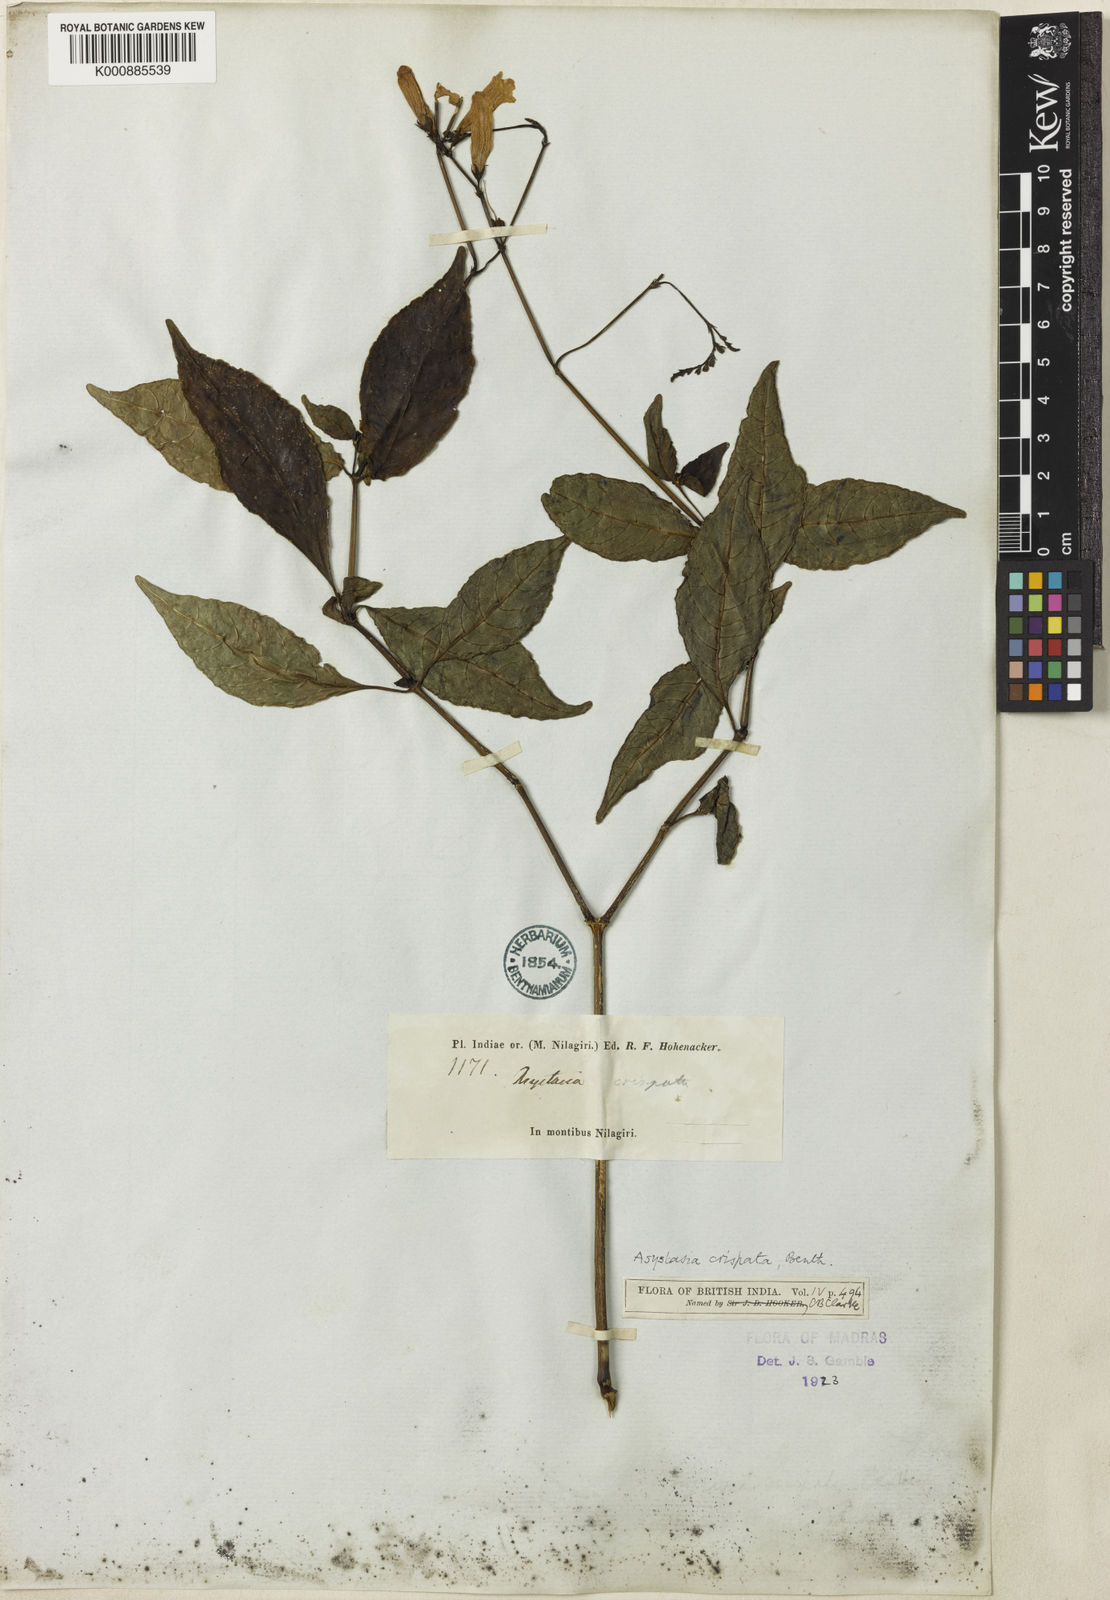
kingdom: Plantae
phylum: Tracheophyta
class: Magnoliopsida
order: Lamiales
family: Acanthaceae
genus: Asystasia
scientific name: Asystasia chelonoides
